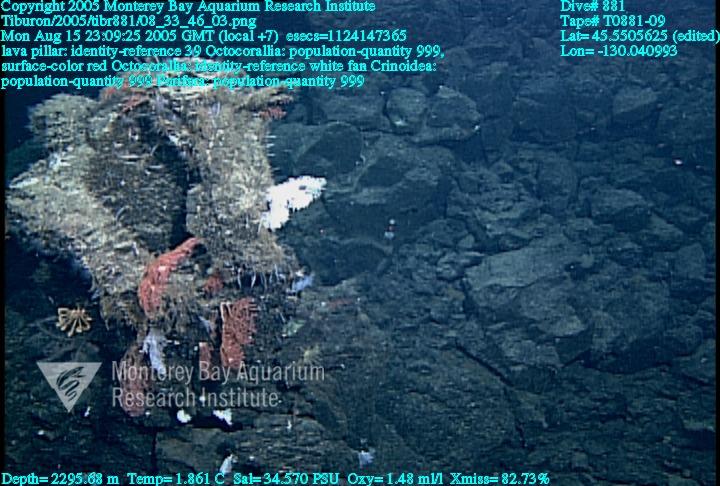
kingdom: Animalia
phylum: Porifera
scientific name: Porifera
